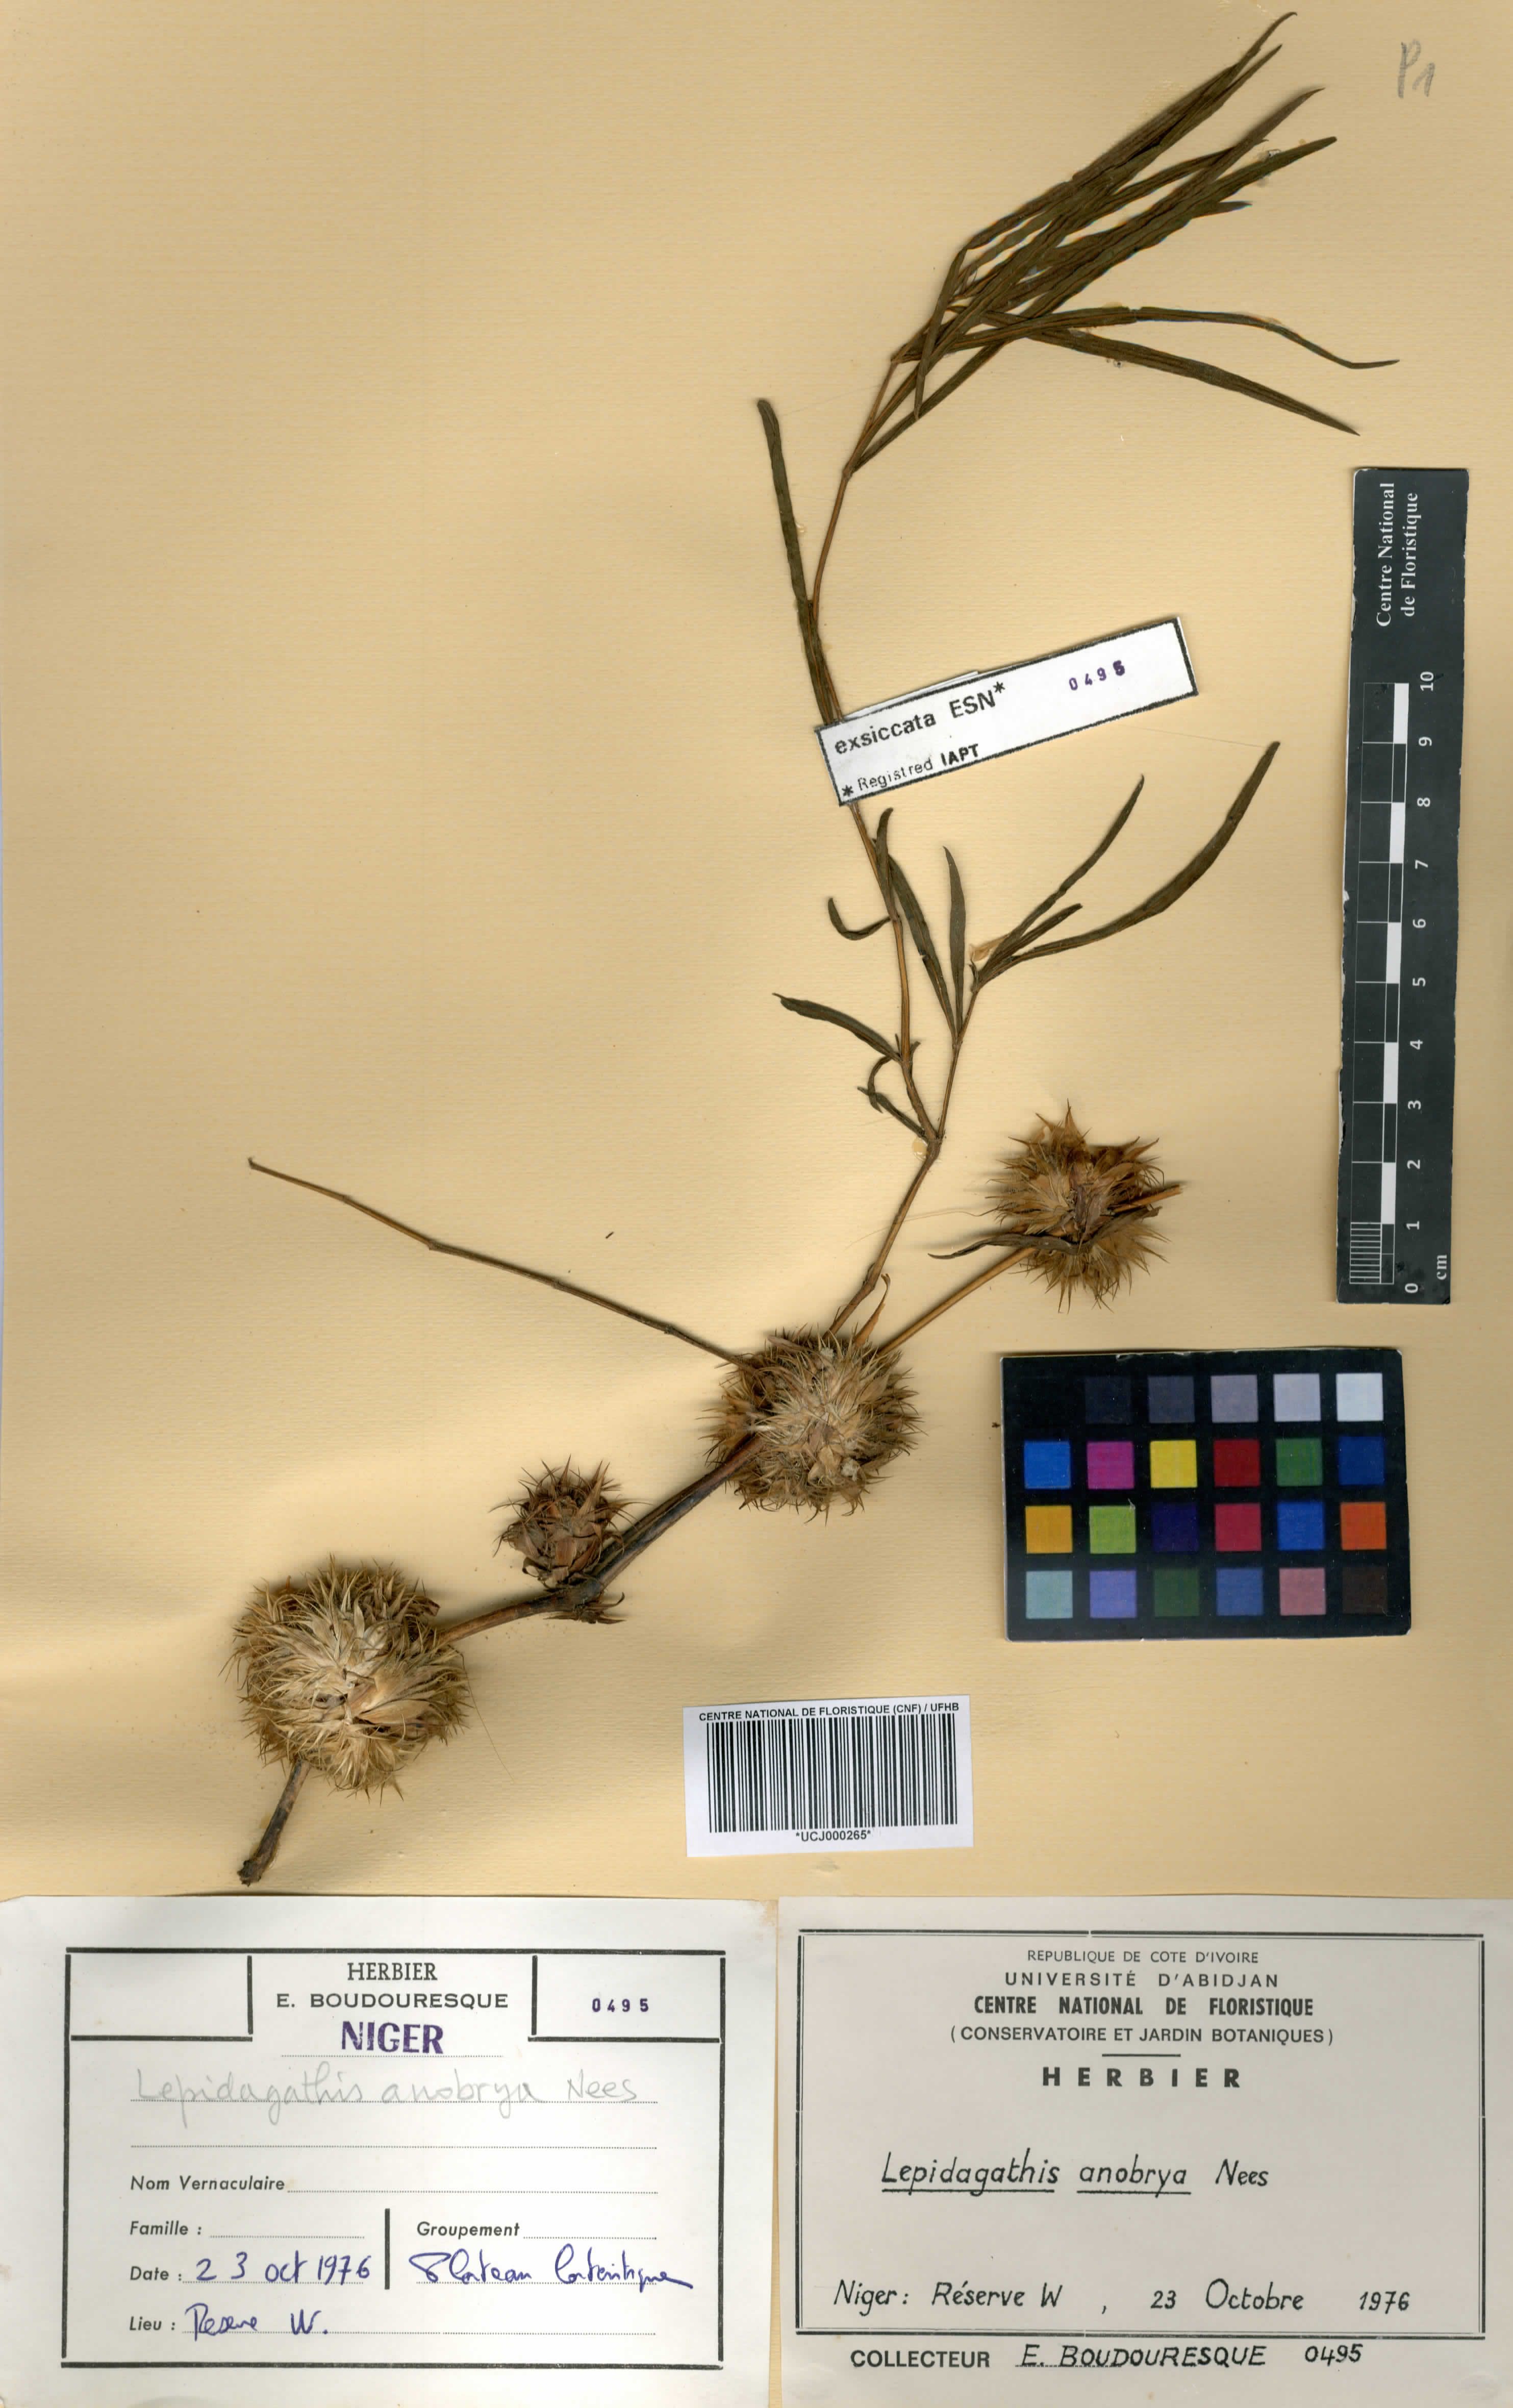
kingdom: Plantae
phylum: Tracheophyta
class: Magnoliopsida
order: Lamiales
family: Acanthaceae
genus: Lepidagathis
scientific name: Lepidagathis anobrya
